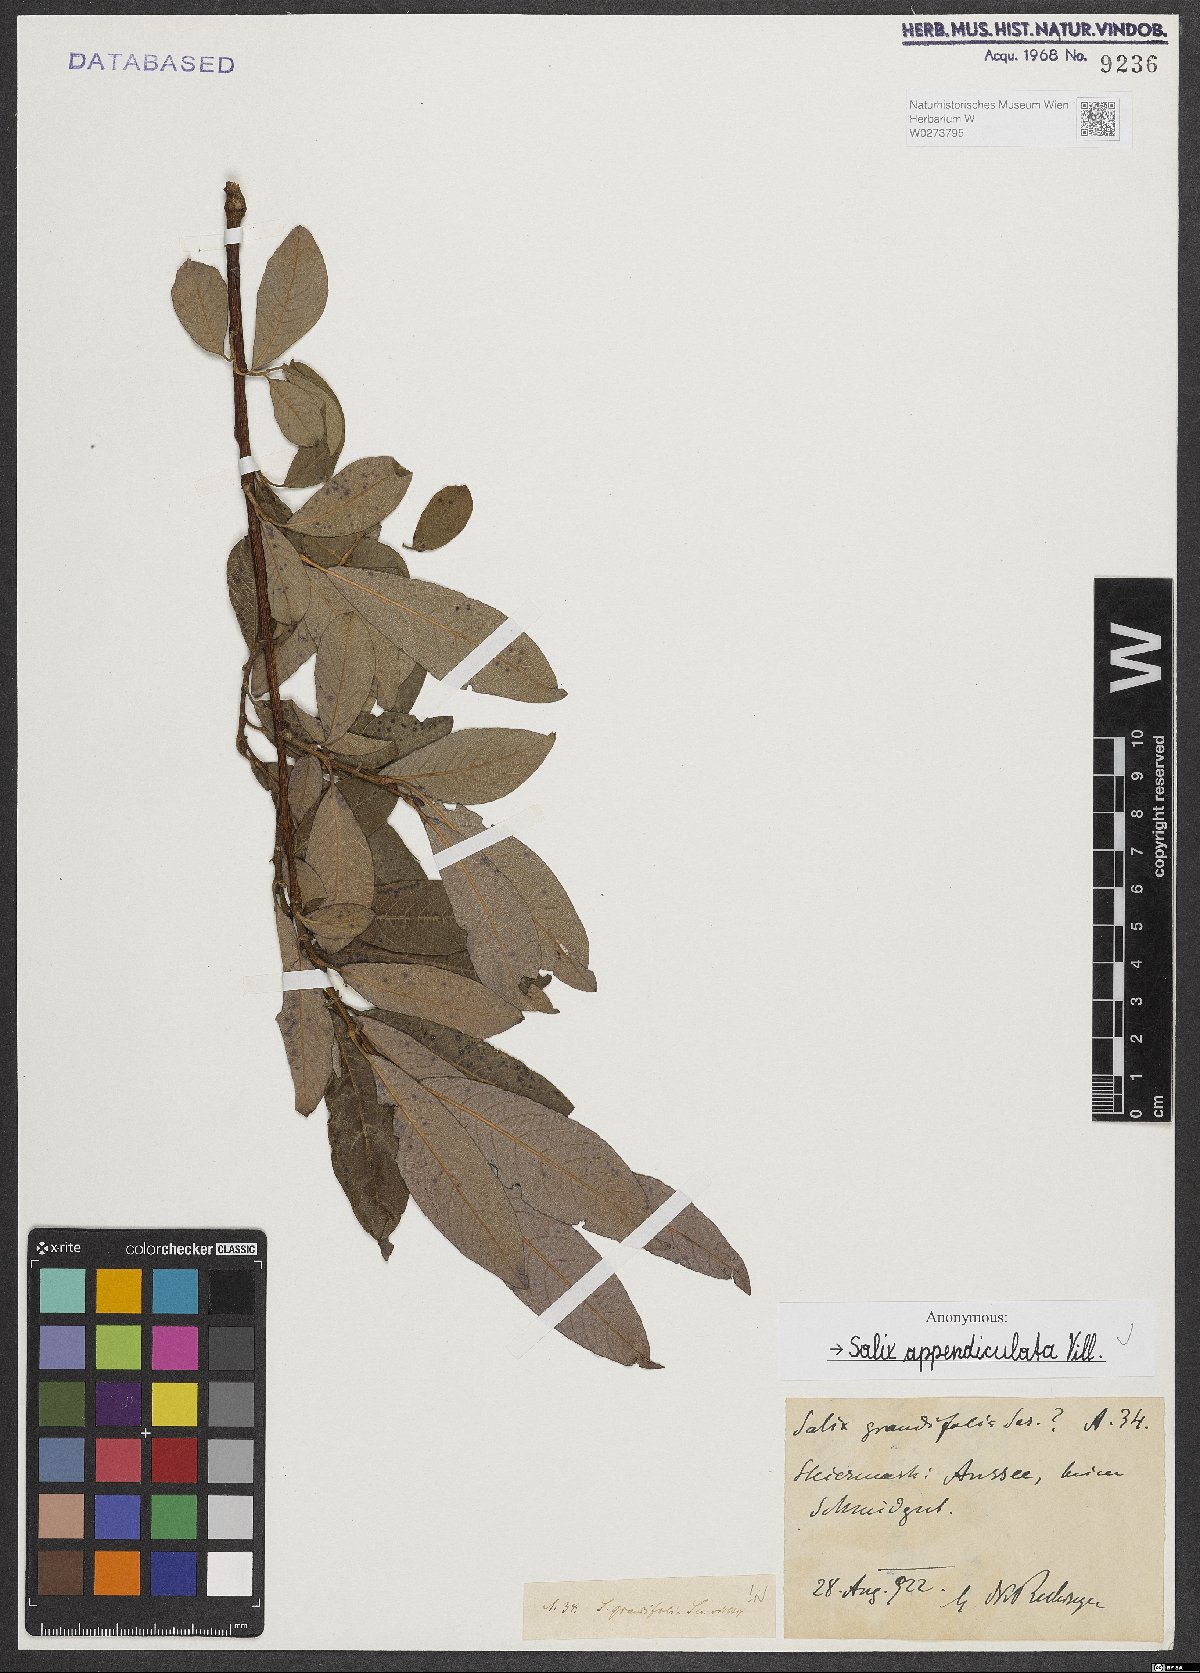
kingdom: Plantae
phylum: Tracheophyta
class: Magnoliopsida
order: Malpighiales
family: Salicaceae
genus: Salix
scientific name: Salix appendiculata
